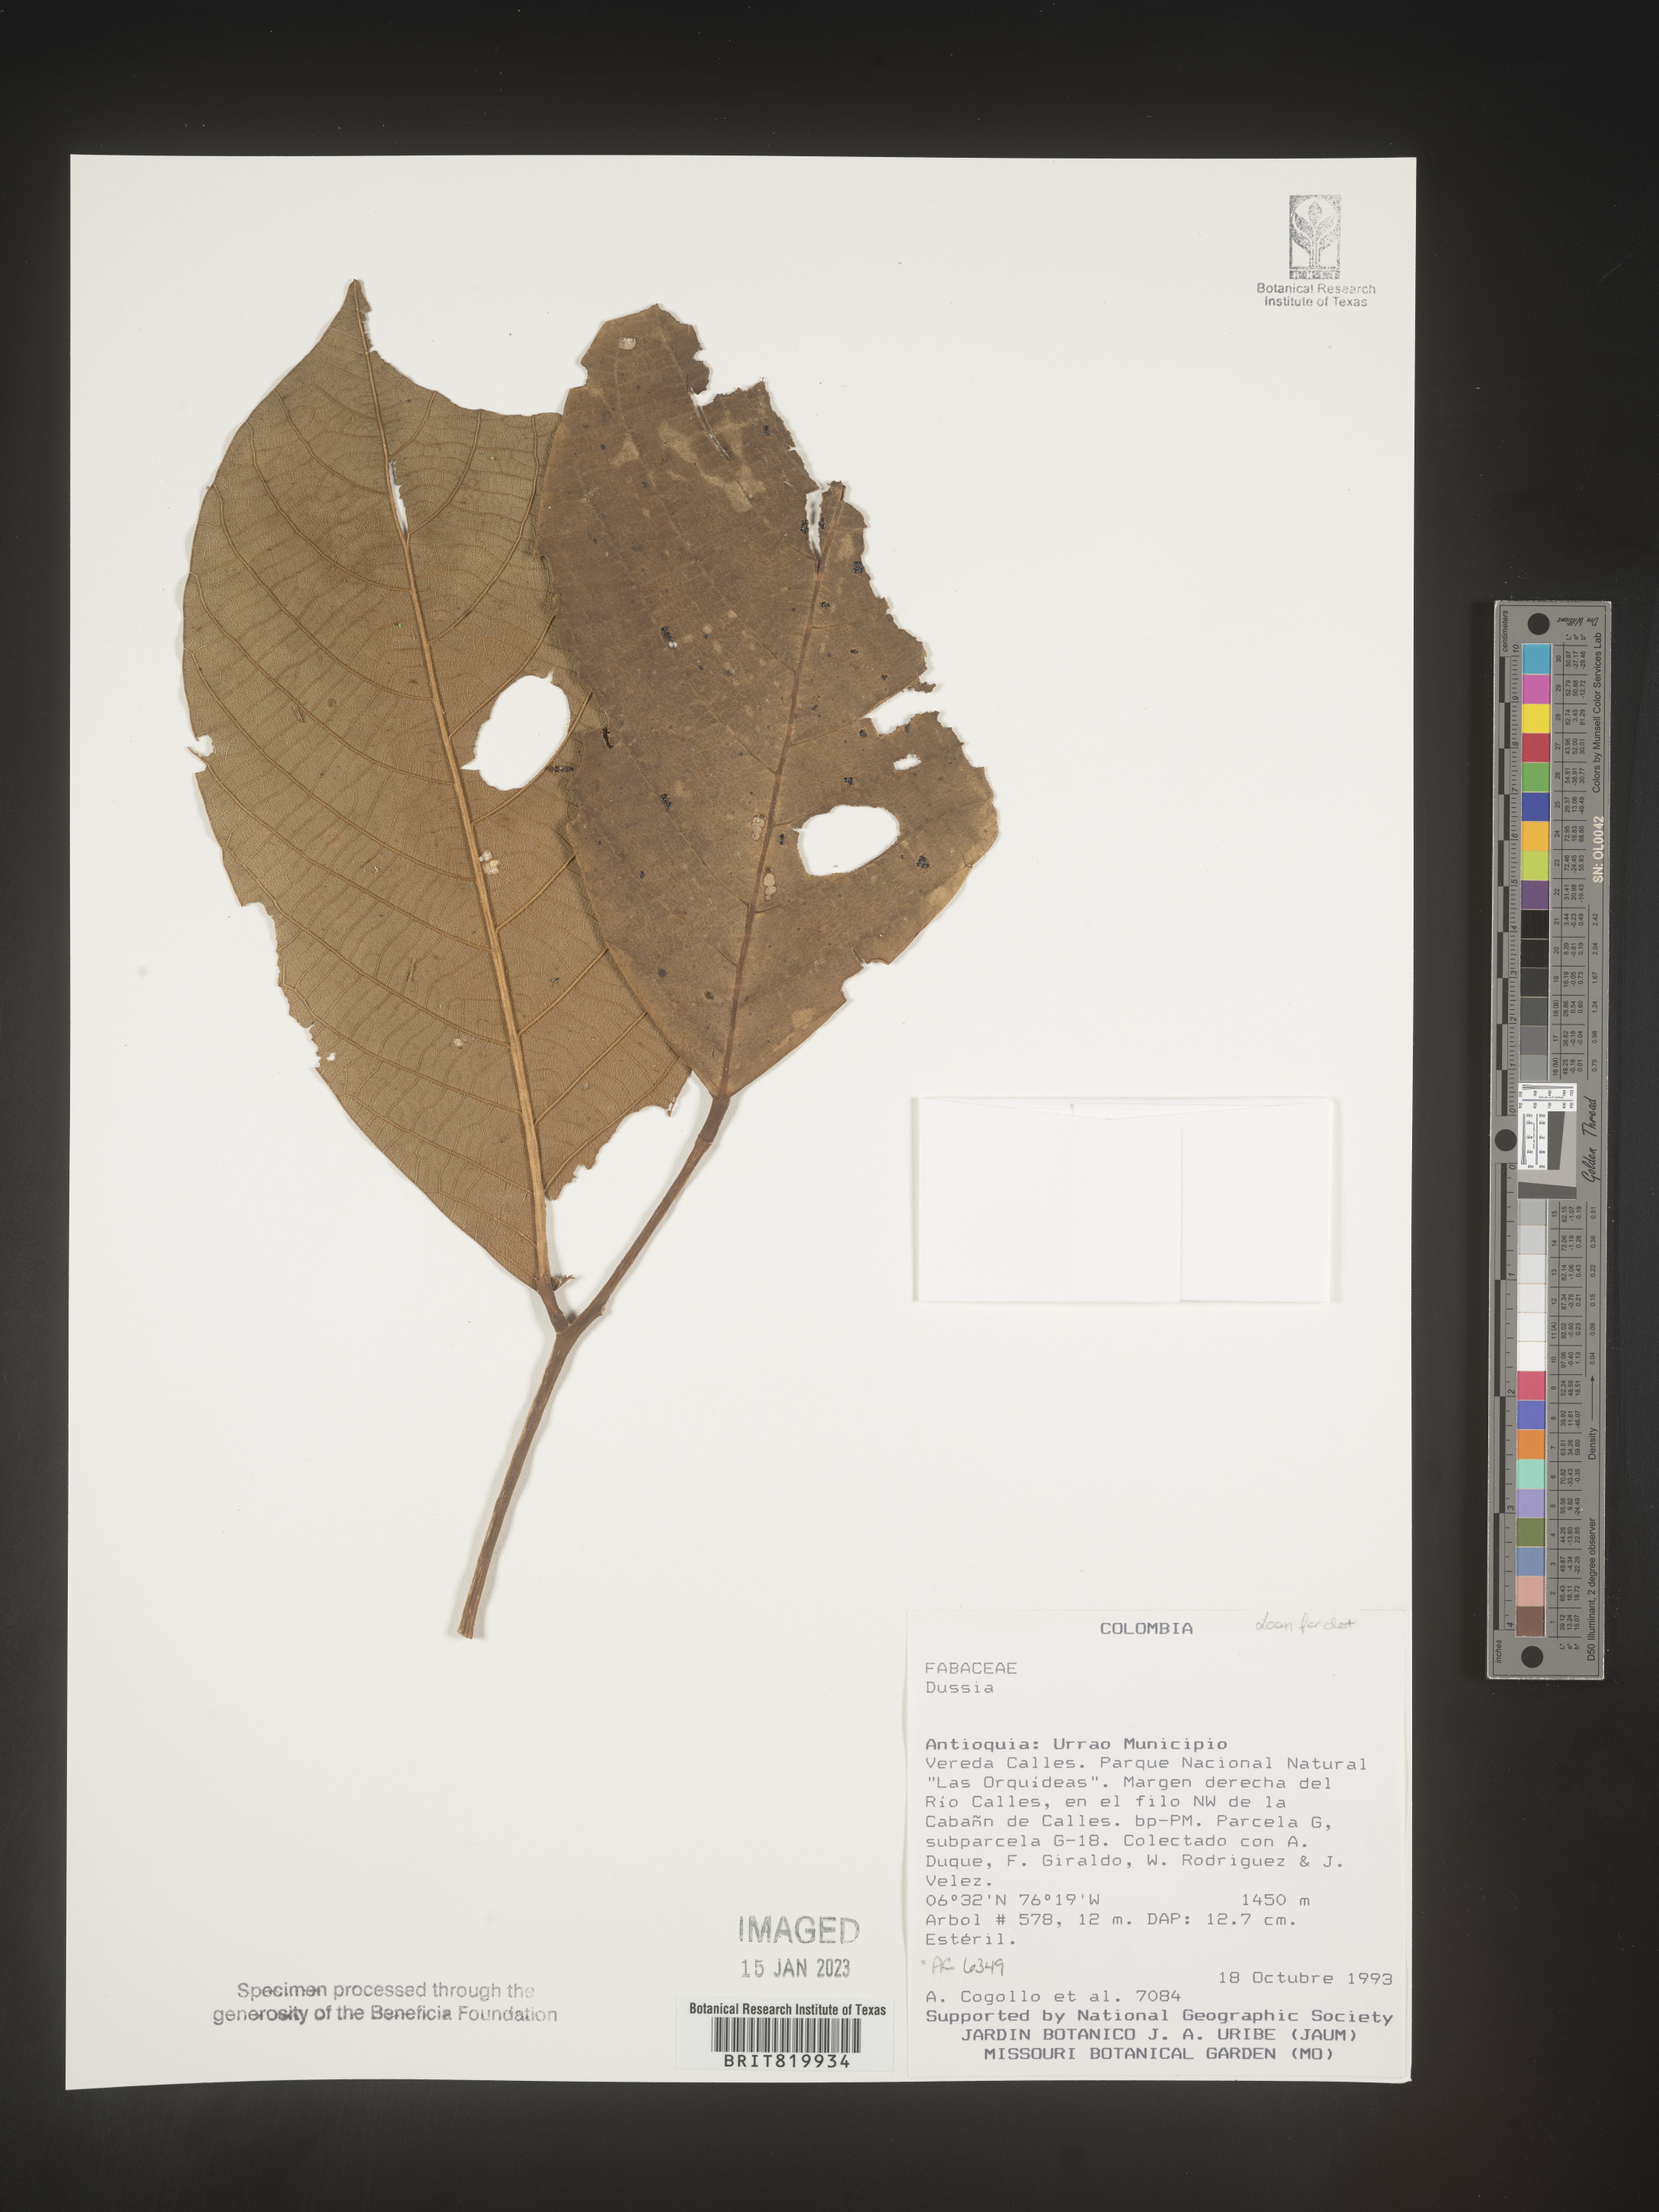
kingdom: Plantae
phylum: Tracheophyta
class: Magnoliopsida
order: Fabales
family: Fabaceae
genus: Dussia
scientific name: Dussia
